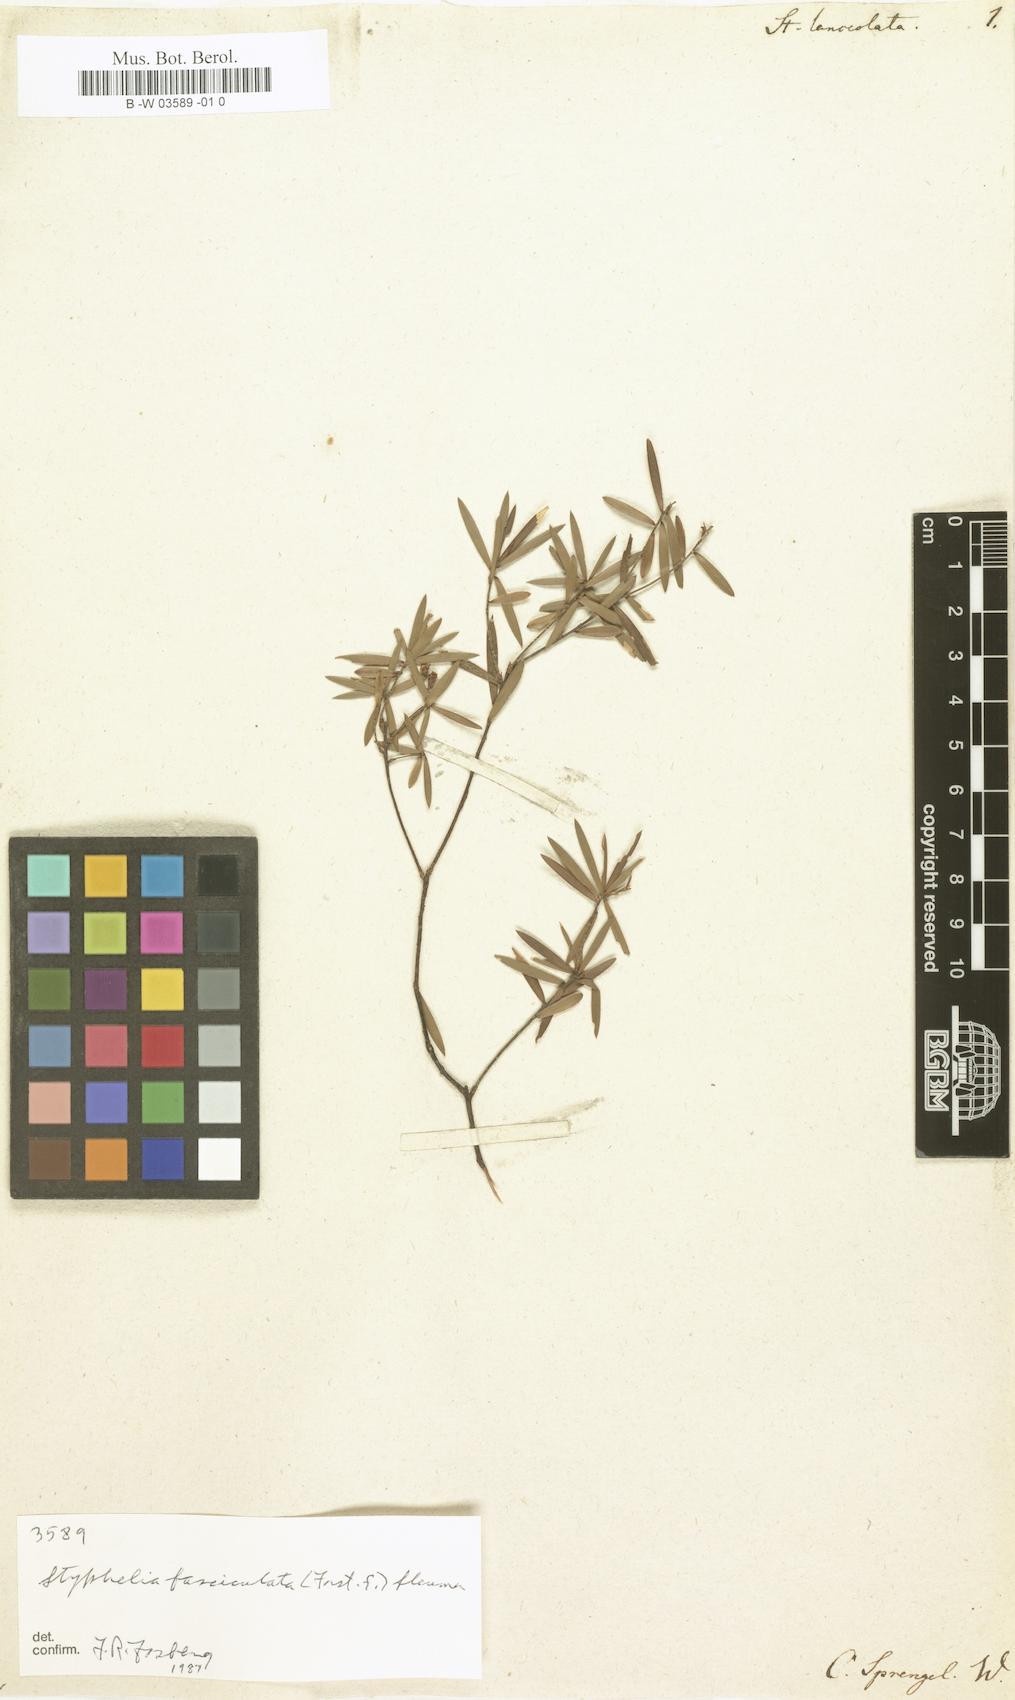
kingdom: Plantae
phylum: Tracheophyta
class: Magnoliopsida
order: Ericales
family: Ericaceae
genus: Leptecophylla
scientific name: Leptecophylla juniperina
